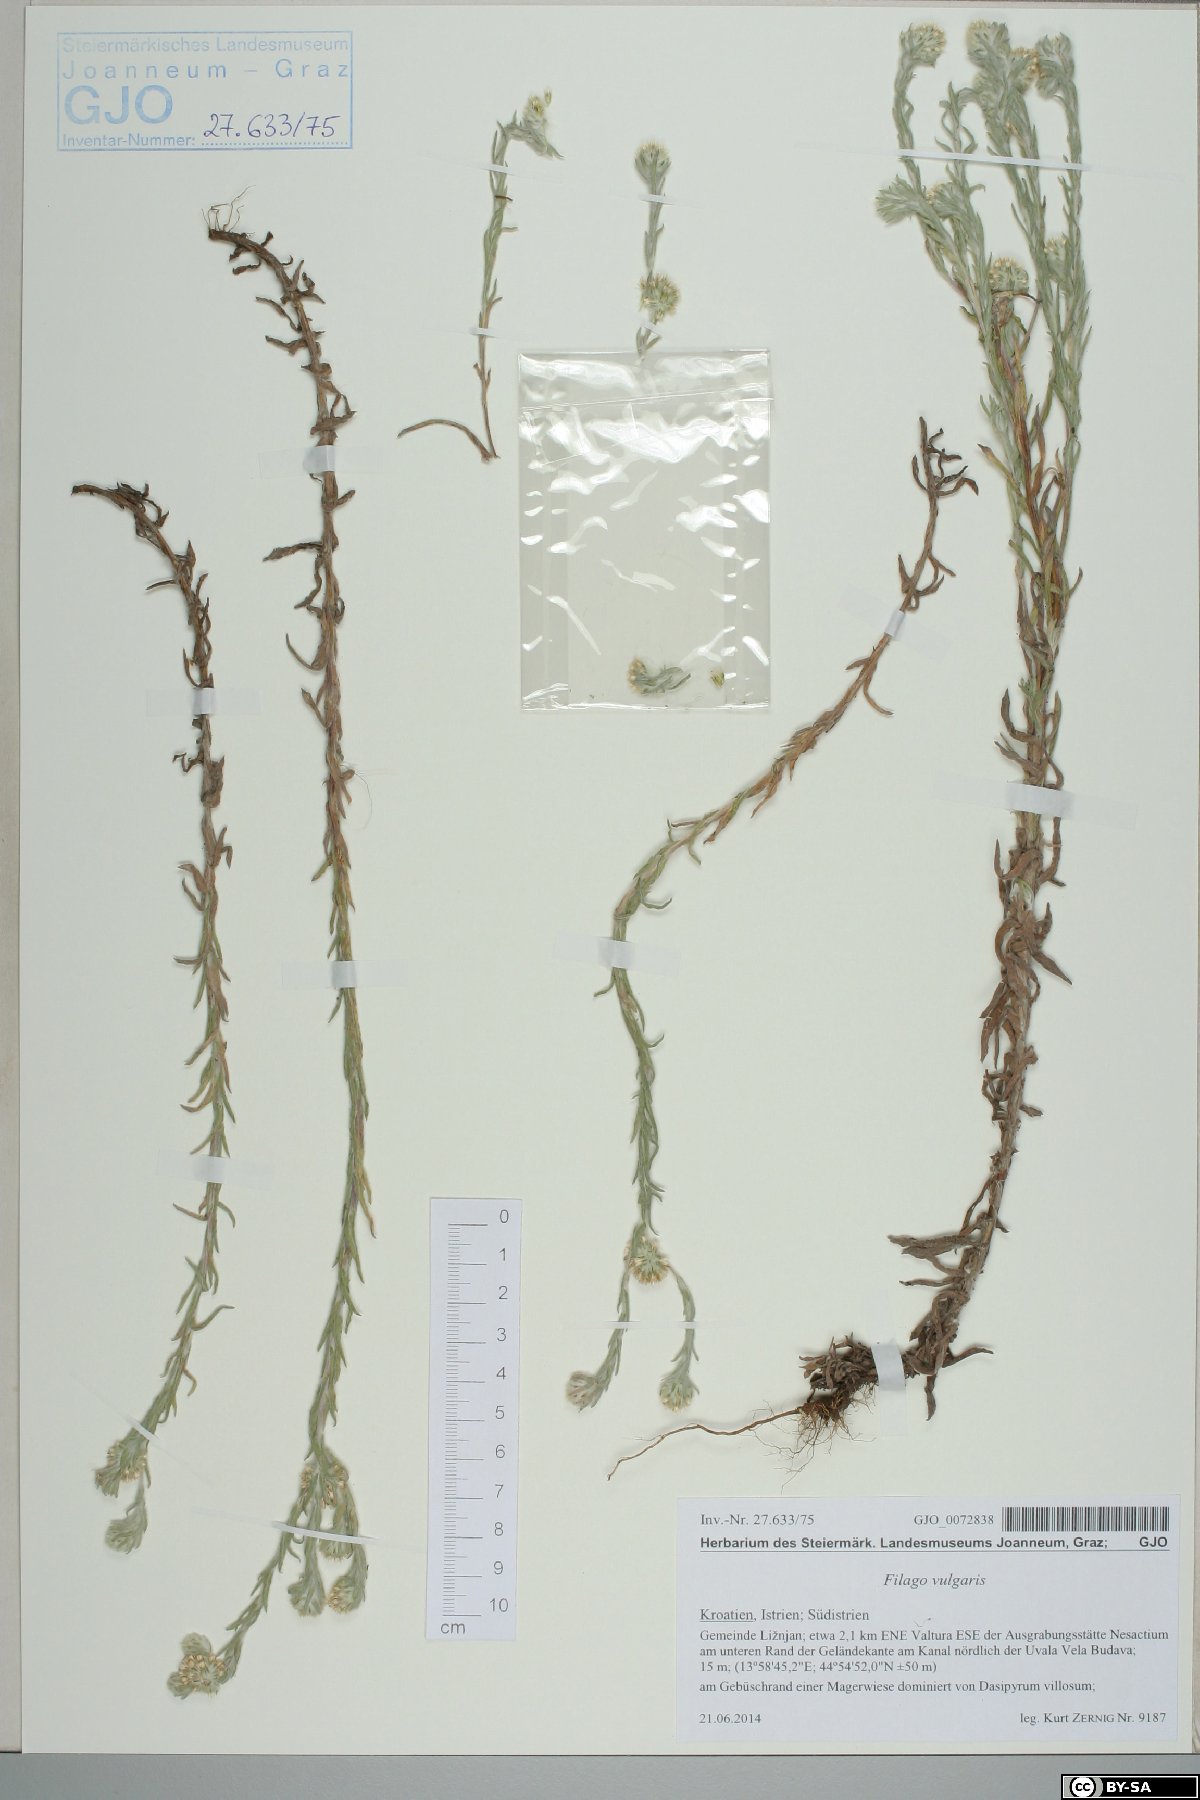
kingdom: Plantae
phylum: Tracheophyta
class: Magnoliopsida
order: Asterales
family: Asteraceae
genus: Filago
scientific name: Filago germanica
